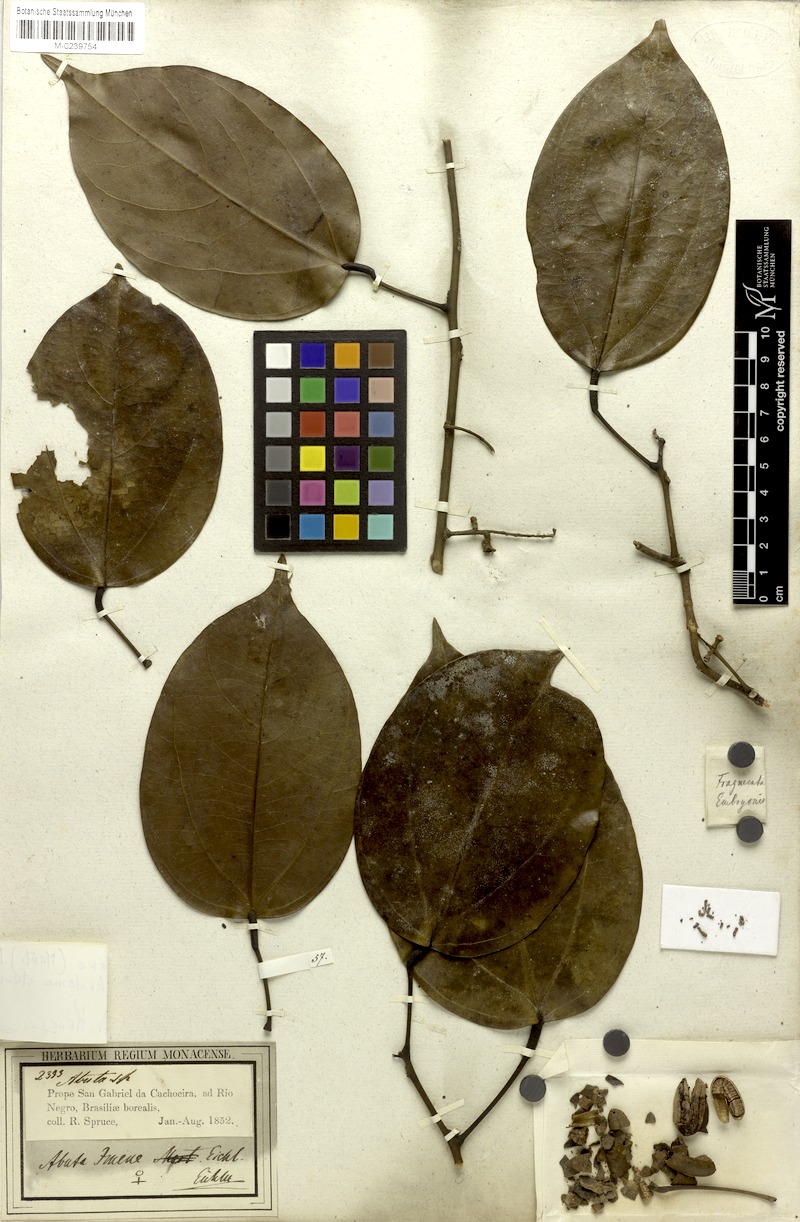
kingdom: Plantae
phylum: Tracheophyta
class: Magnoliopsida
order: Ranunculales
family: Menispermaceae
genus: Abuta
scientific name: Abuta imene
